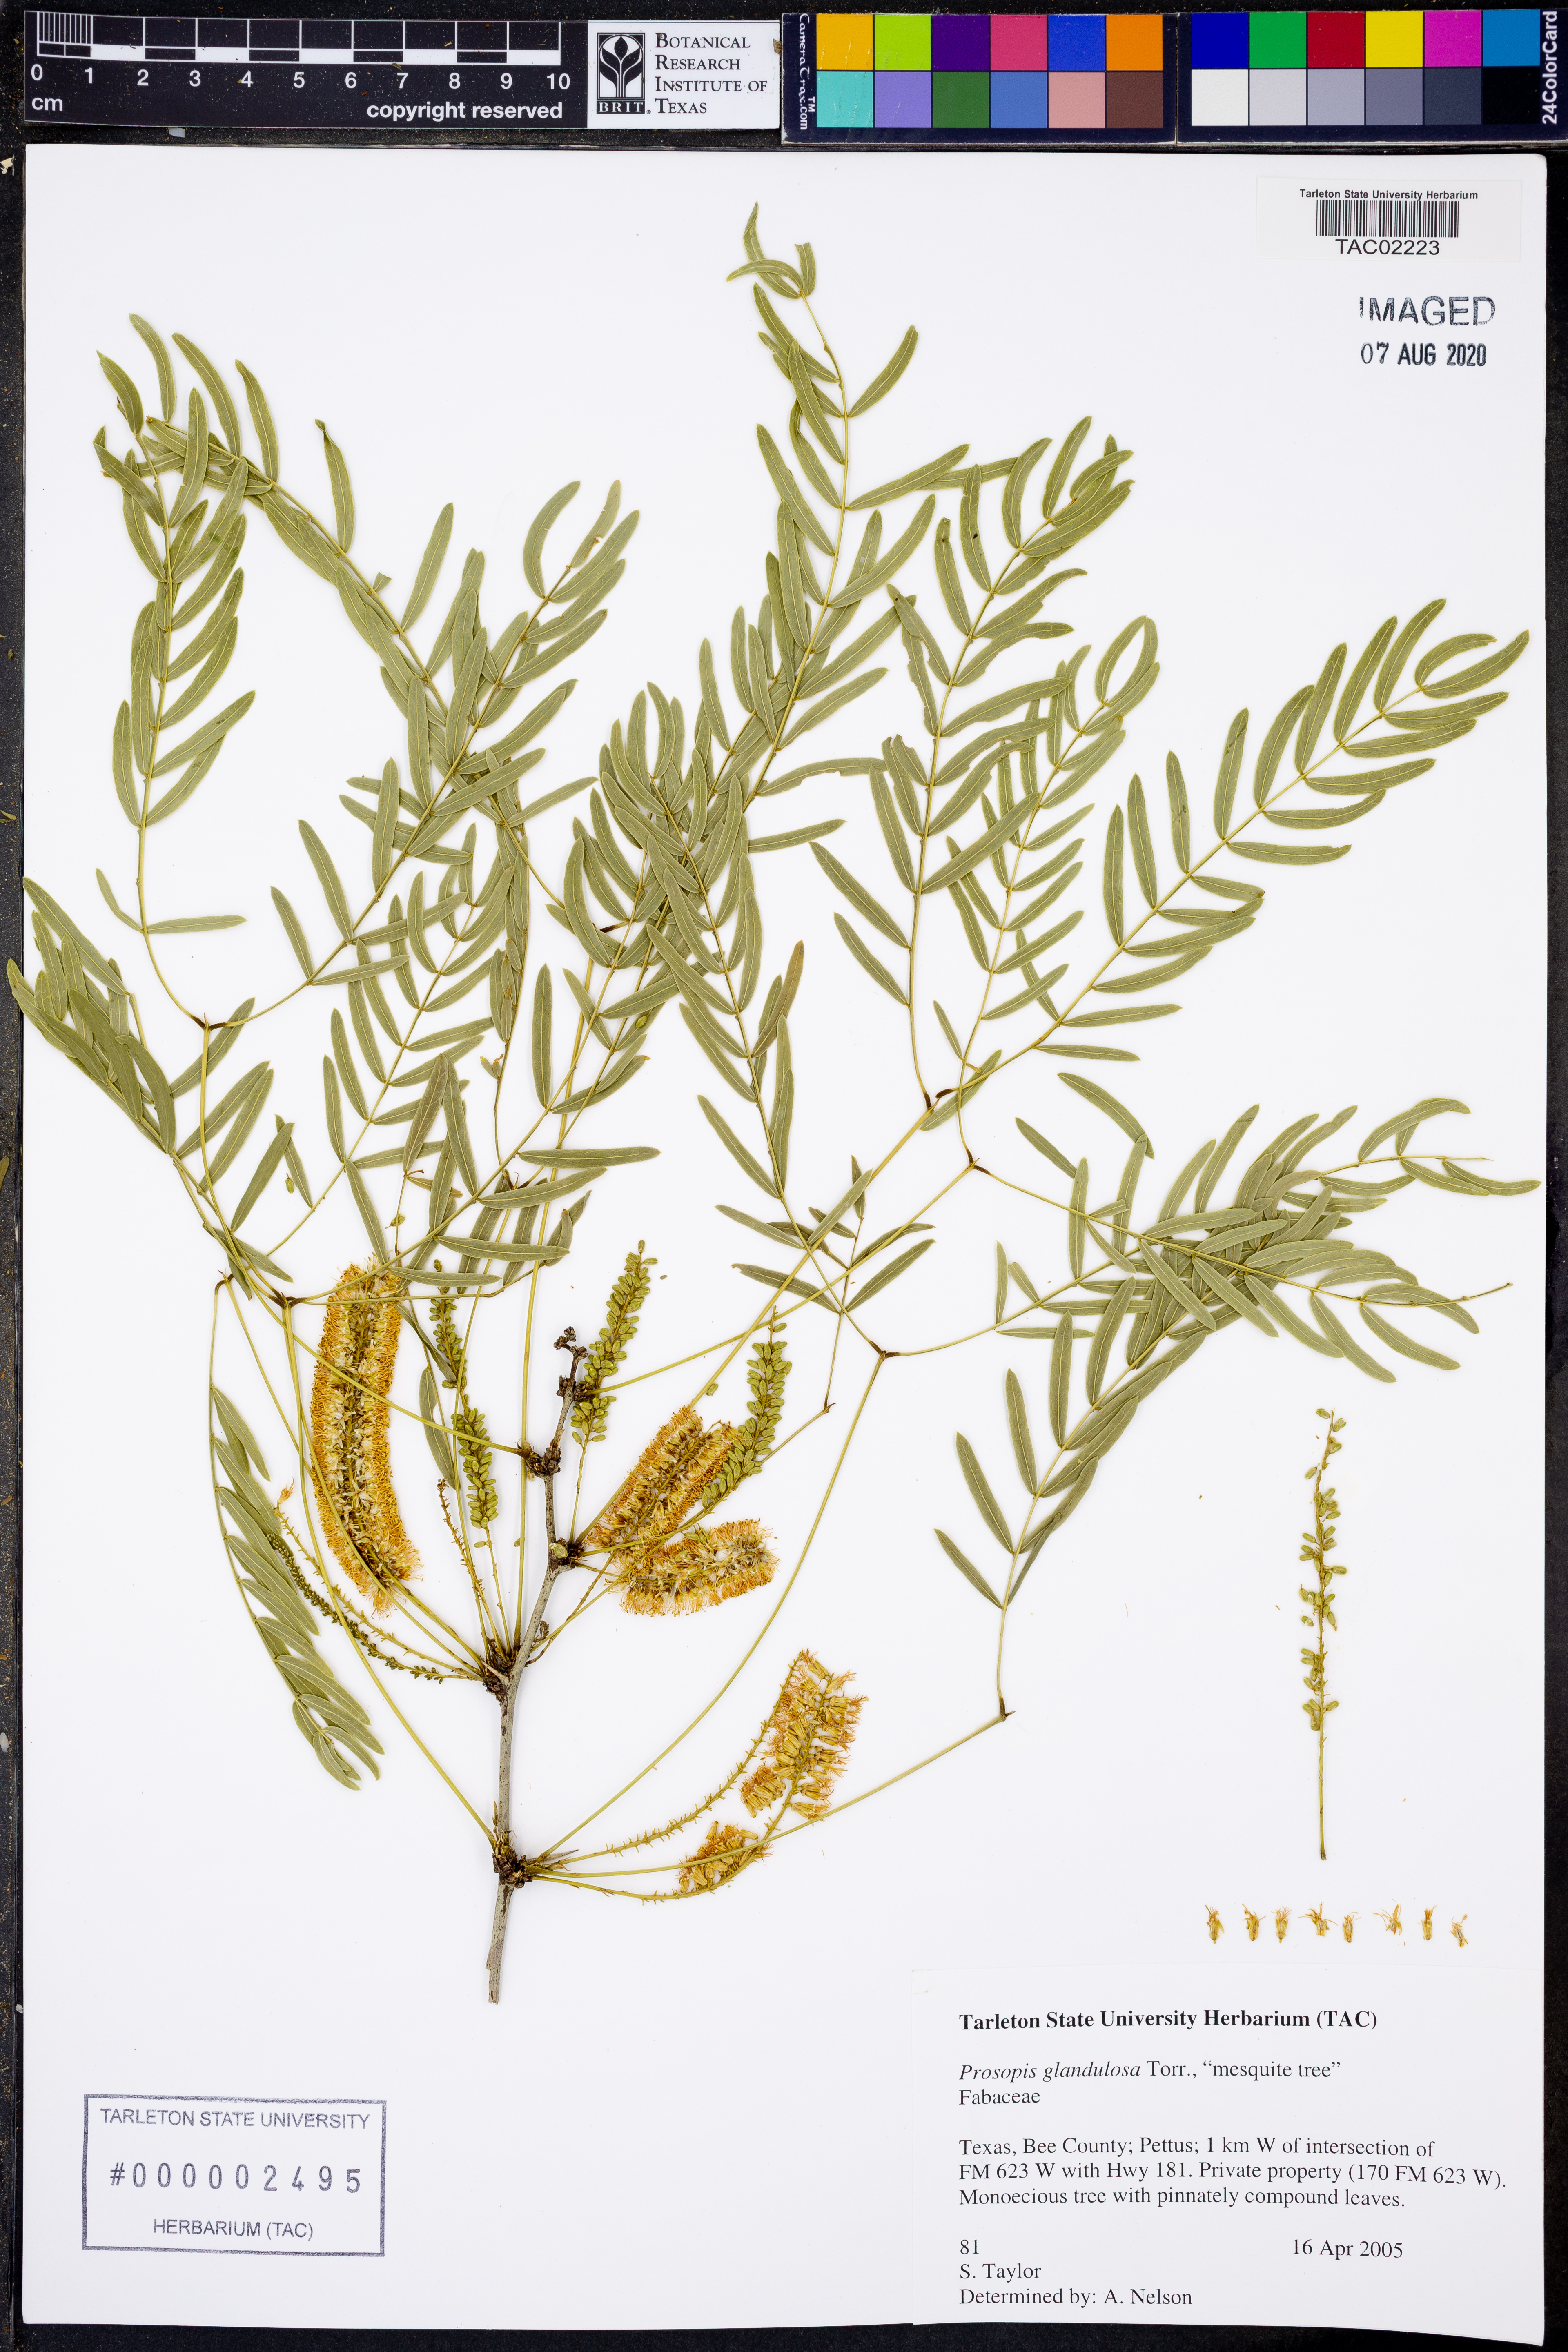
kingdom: Plantae
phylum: Tracheophyta
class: Magnoliopsida
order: Fabales
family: Fabaceae
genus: Prosopis
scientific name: Prosopis glandulosa
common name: Honey mesquite
